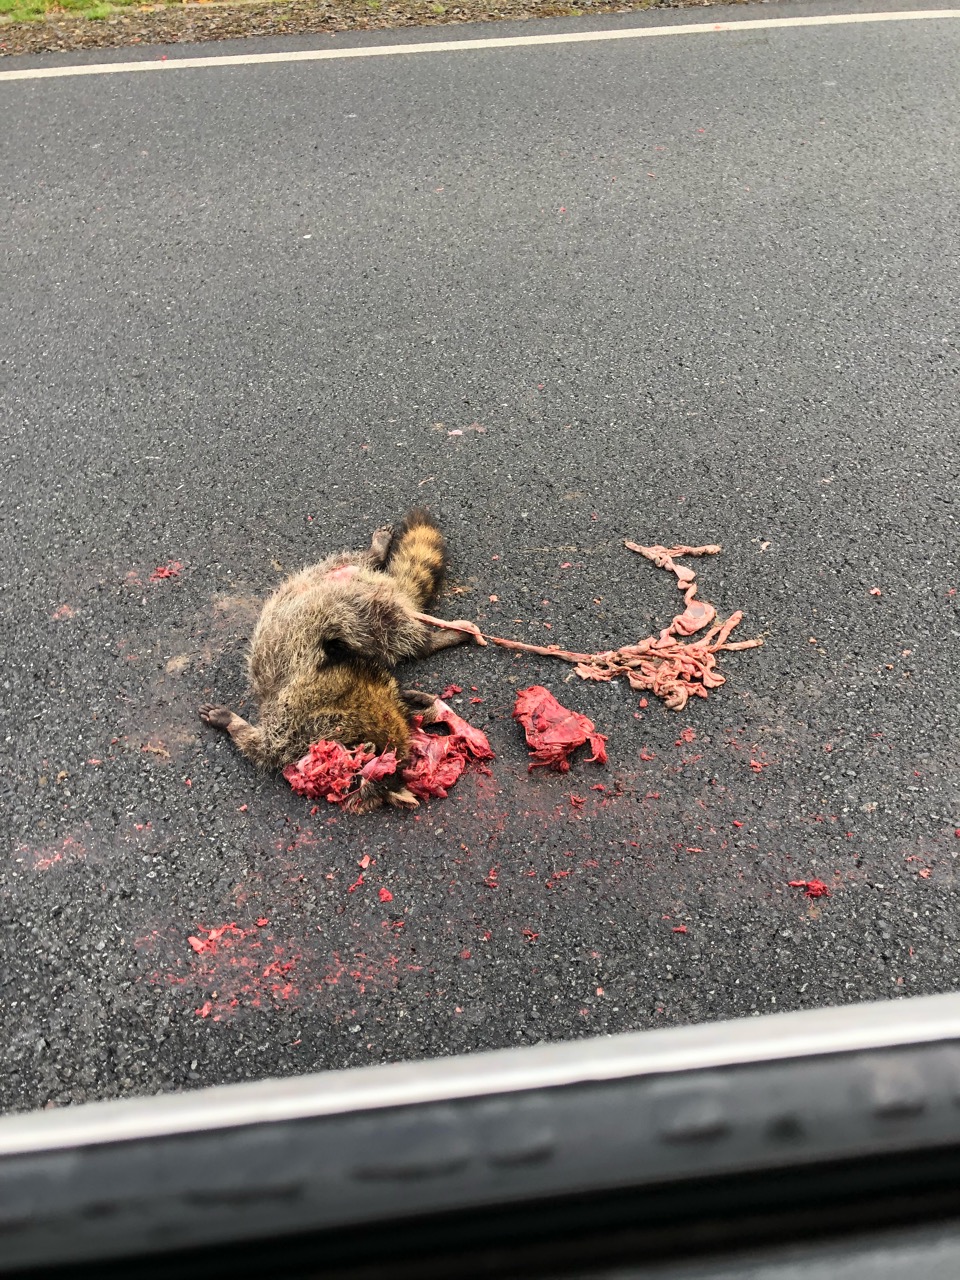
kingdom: Animalia
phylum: Chordata
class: Mammalia
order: Carnivora
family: Procyonidae
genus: Procyon
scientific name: Procyon lotor
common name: Raccoon
